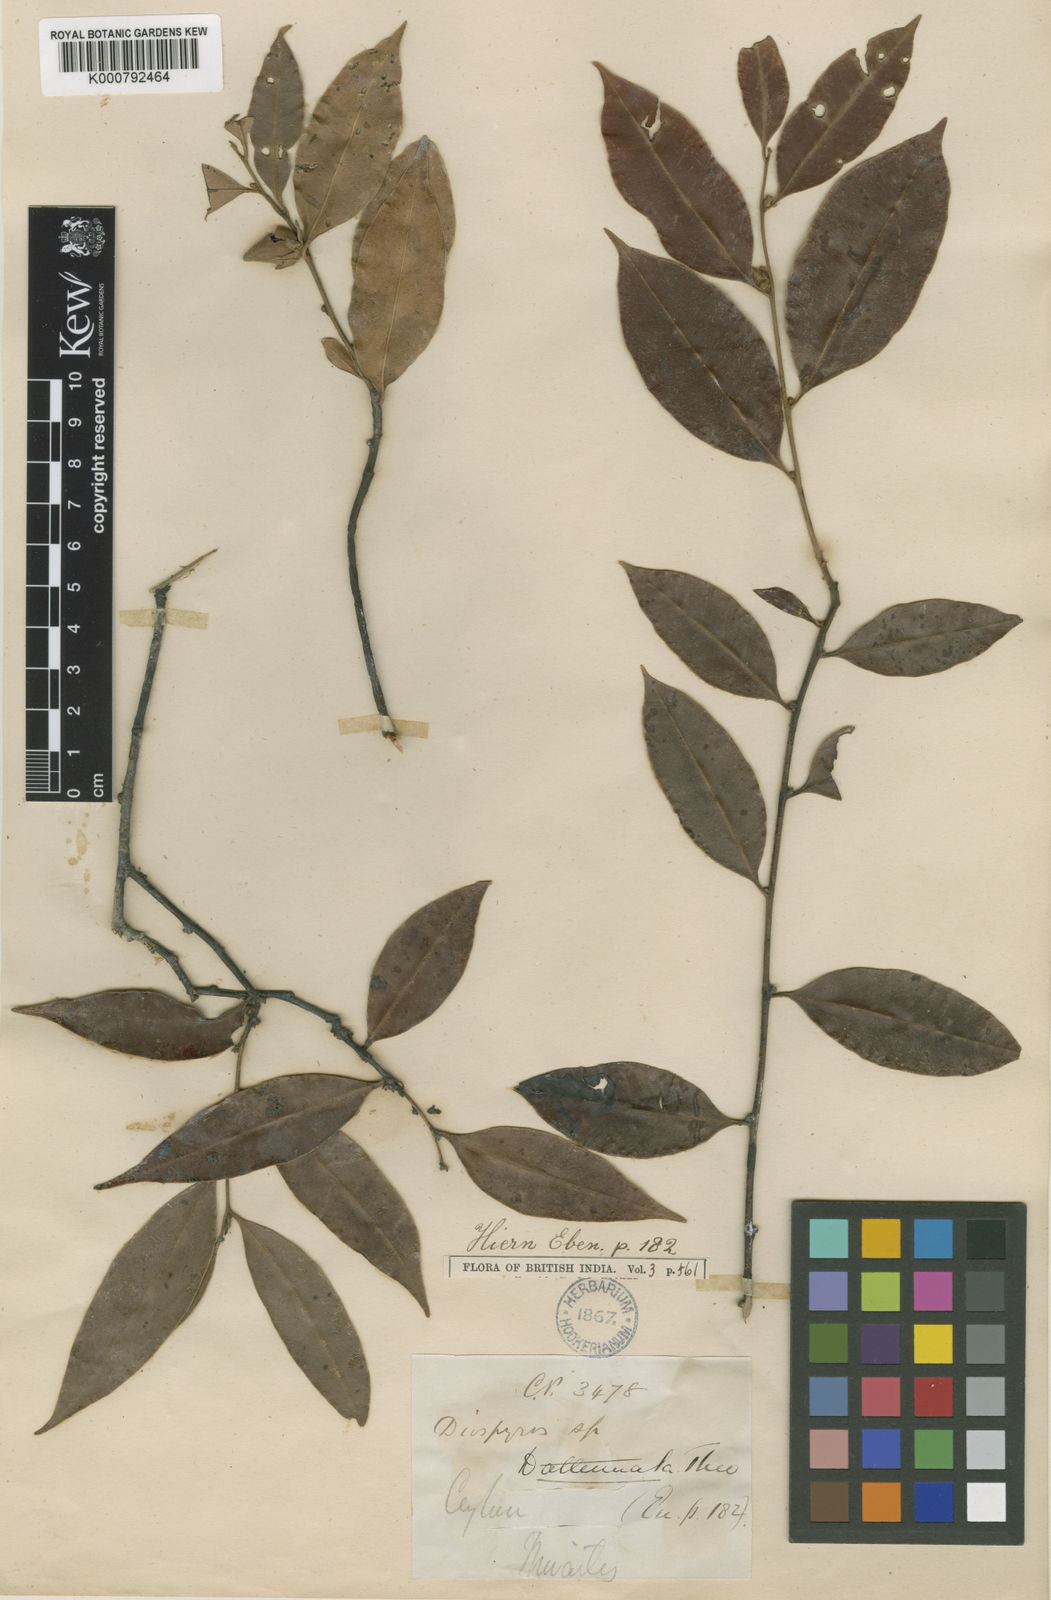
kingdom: Plantae
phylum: Tracheophyta
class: Magnoliopsida
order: Ericales
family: Ebenaceae
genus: Diospyros
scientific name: Diospyros attenuata
